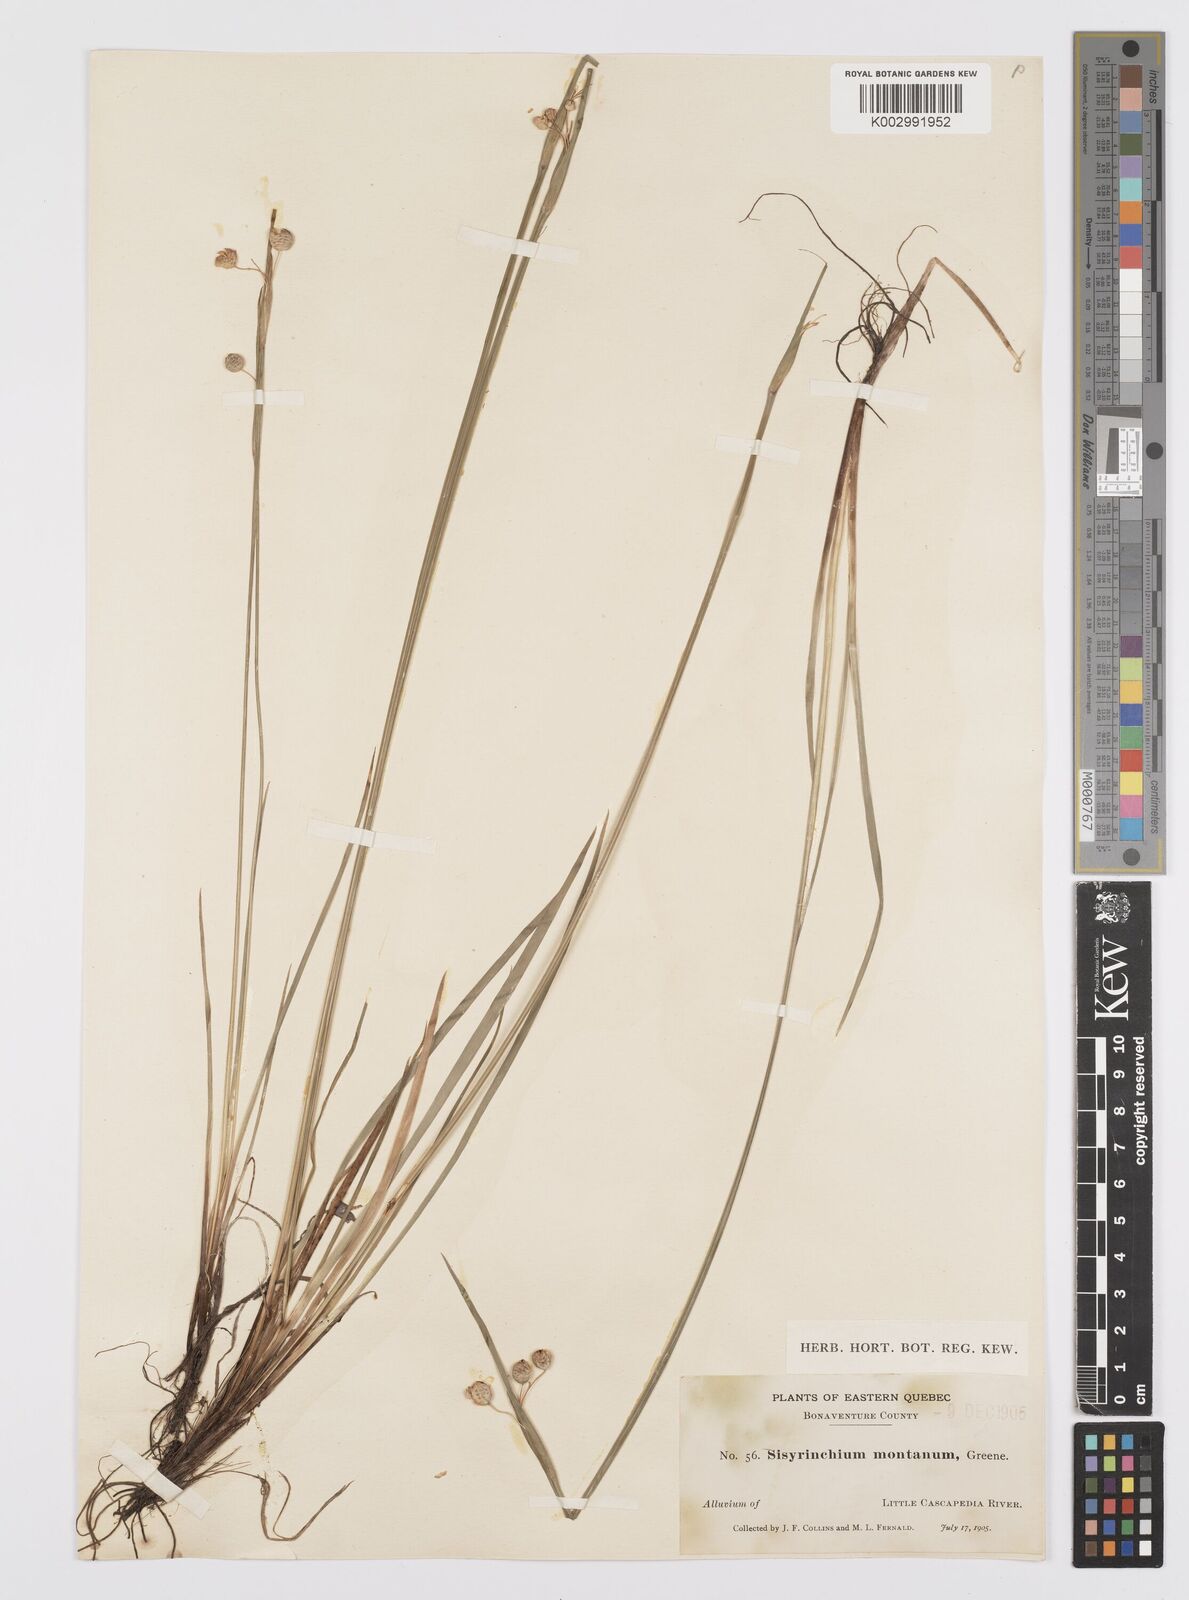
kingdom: Plantae
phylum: Tracheophyta
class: Liliopsida
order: Asparagales
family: Iridaceae
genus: Sisyrinchium
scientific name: Sisyrinchium montanum
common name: American blue-eyed-grass
